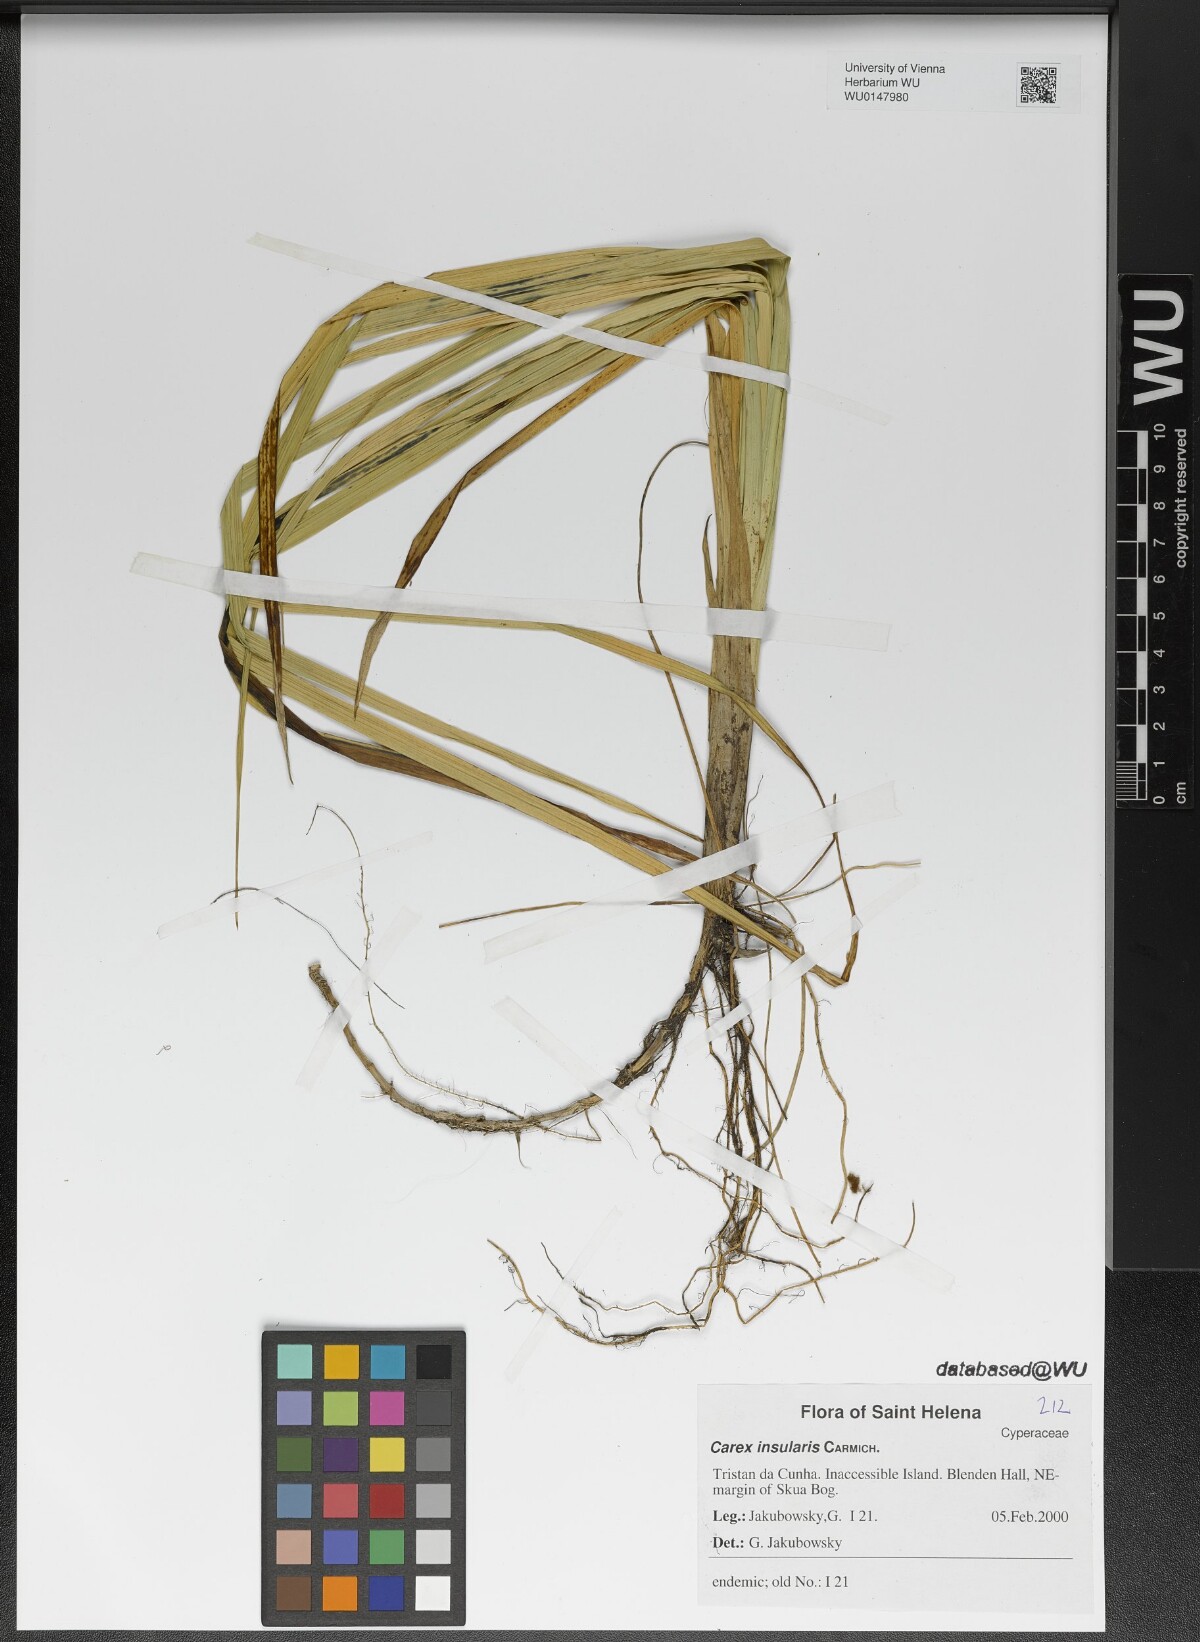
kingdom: Plantae
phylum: Tracheophyta
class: Liliopsida
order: Poales
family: Cyperaceae
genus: Carex
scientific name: Carex insularis
